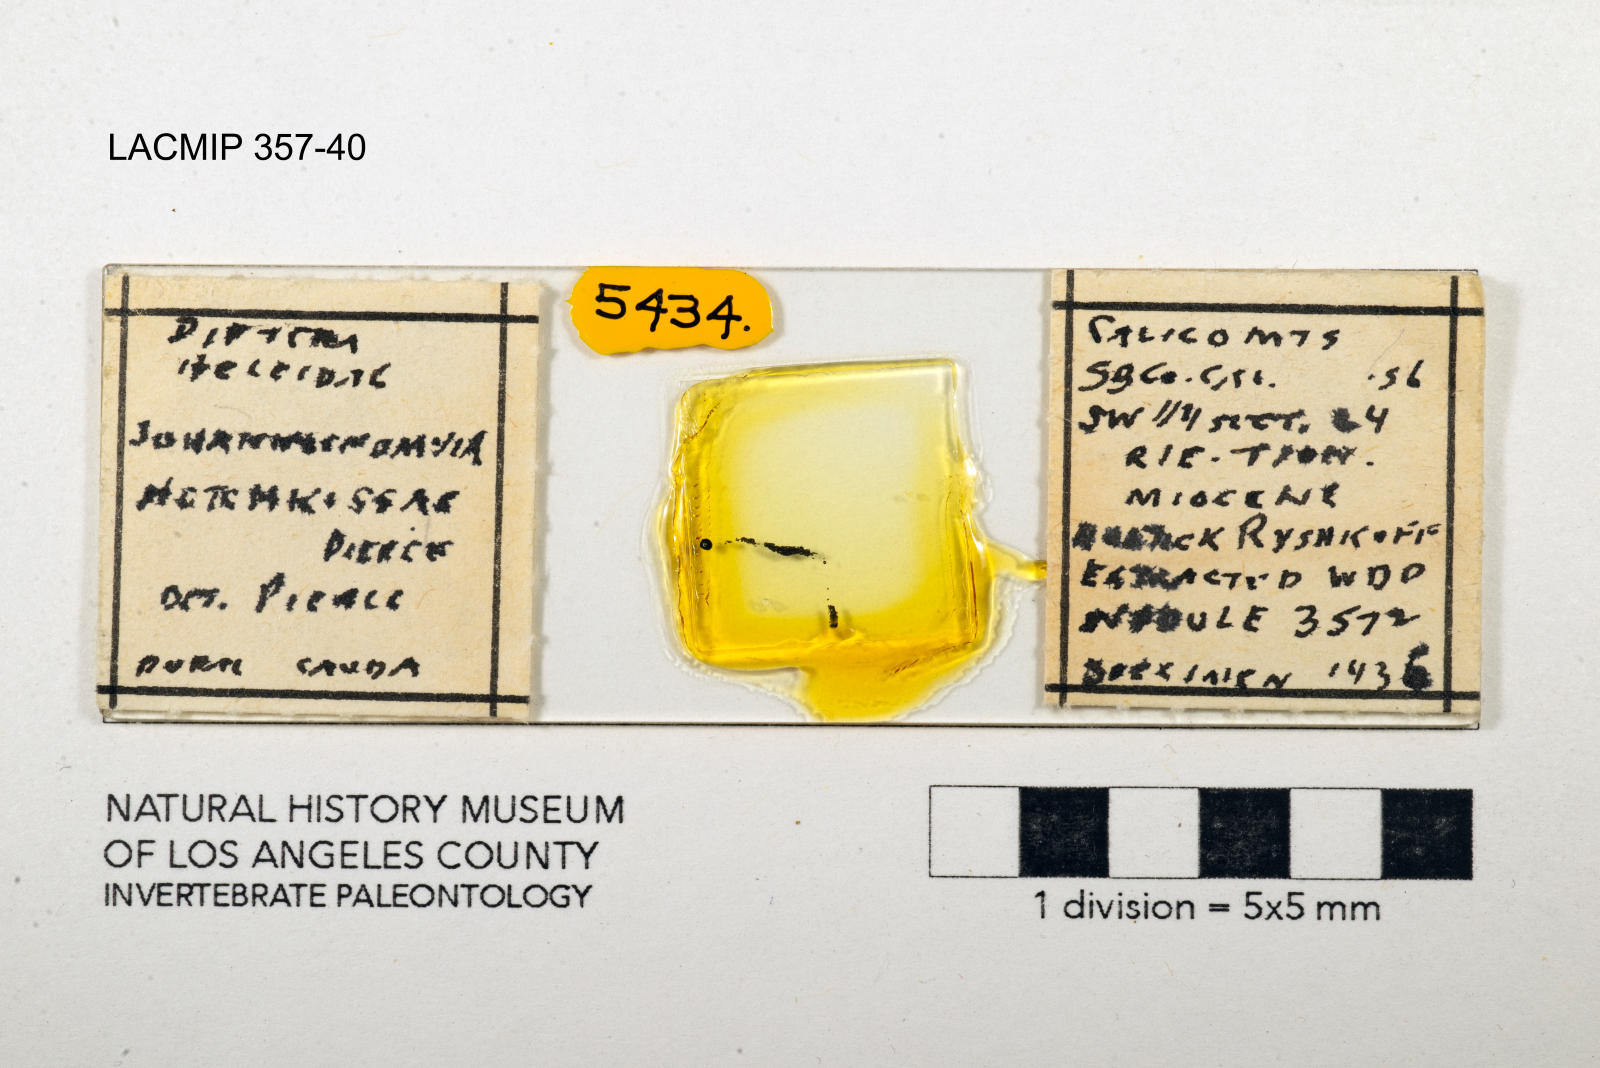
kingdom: Animalia
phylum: Arthropoda
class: Insecta
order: Diptera
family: Ceratopogonidae
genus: Johannsenomyia
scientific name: Johannsenomyia
